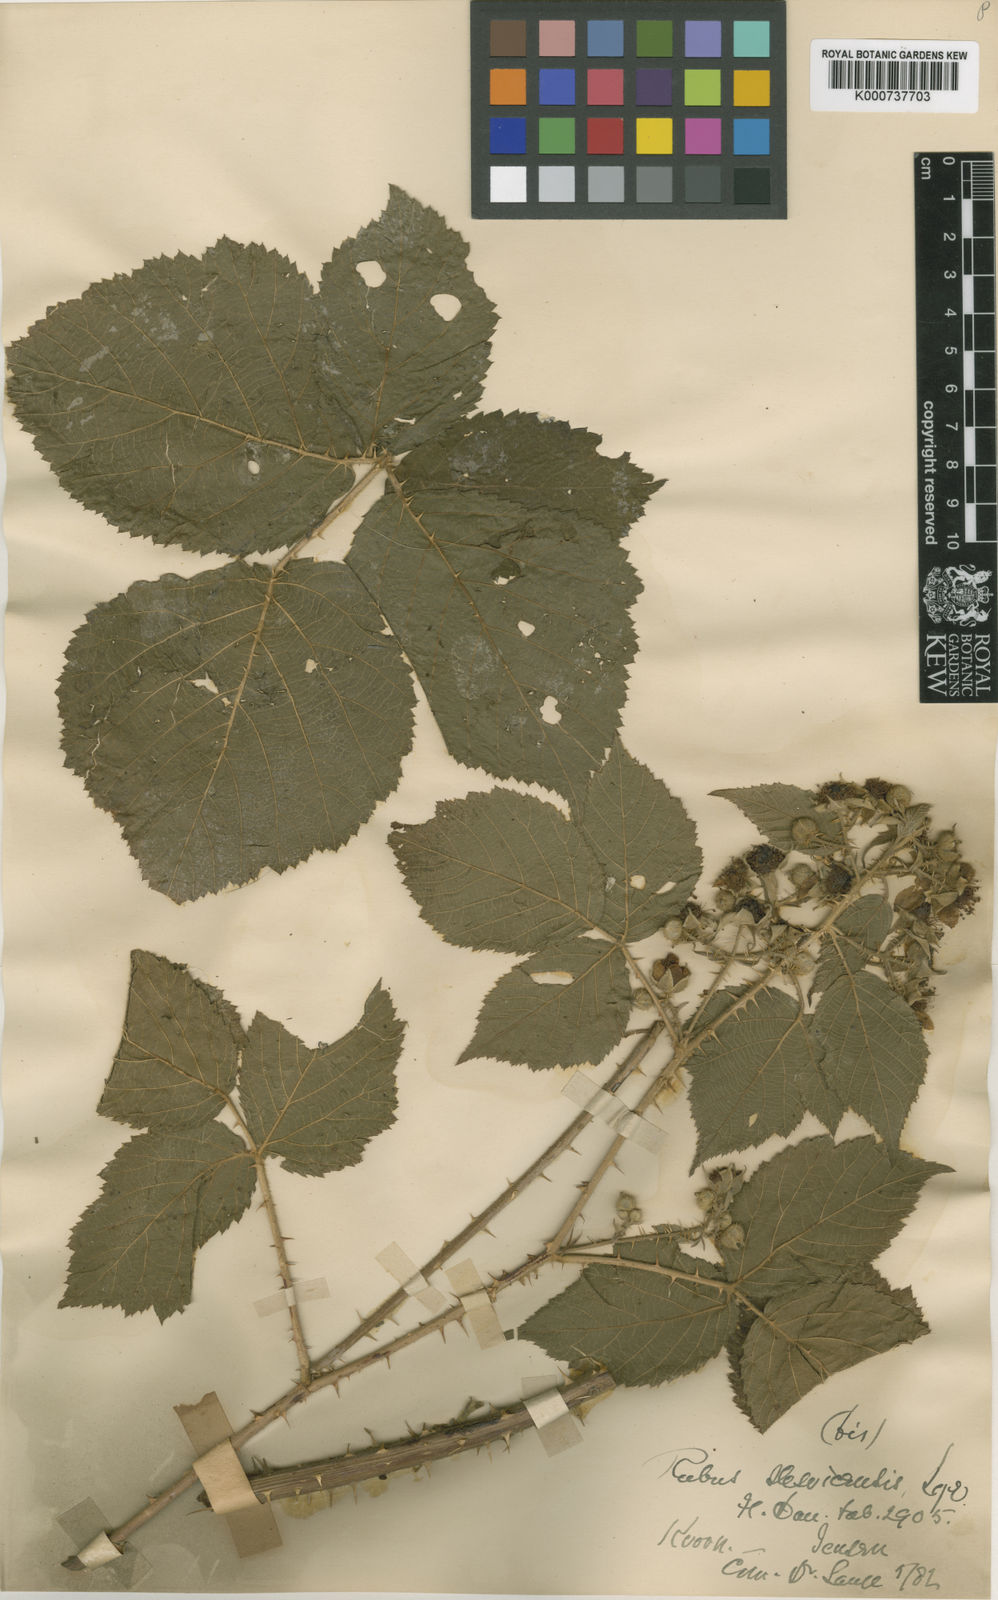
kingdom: Plantae
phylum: Tracheophyta
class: Magnoliopsida
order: Rosales
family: Rosaceae
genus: Rubus
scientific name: Rubus fabrimontanus
